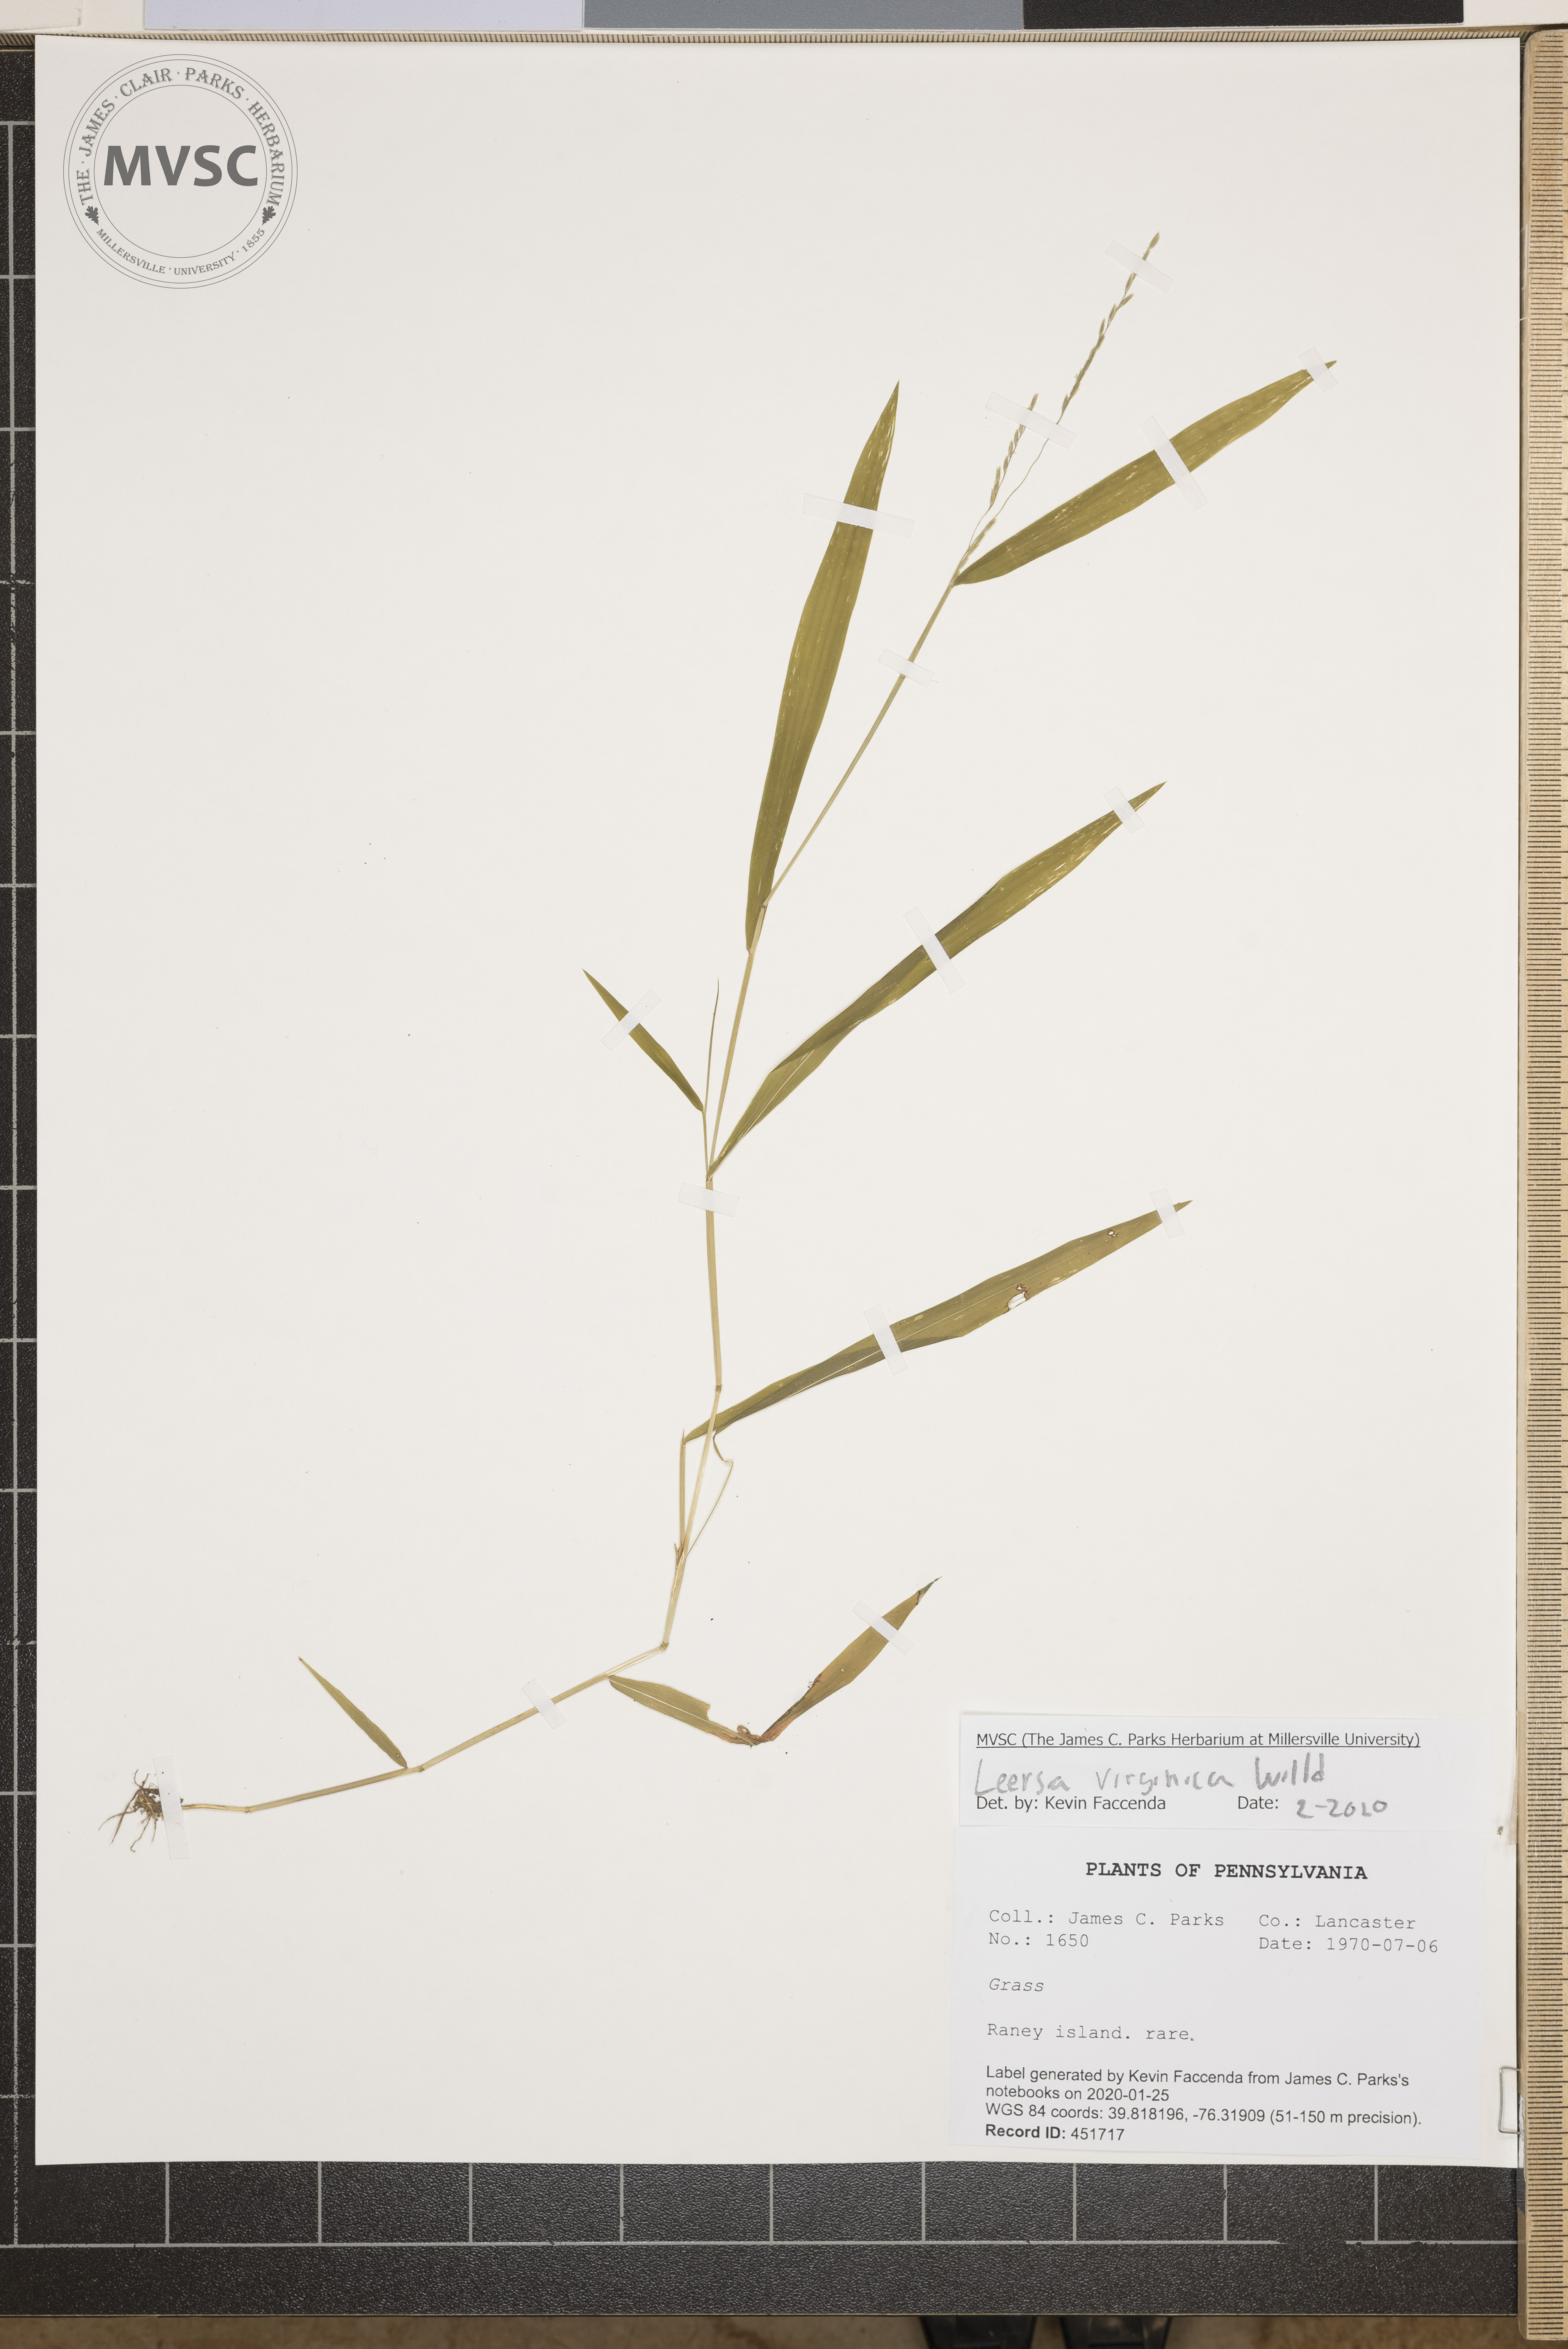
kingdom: Plantae
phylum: Tracheophyta
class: Liliopsida
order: Poales
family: Poaceae
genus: Leersia
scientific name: Leersia virginica
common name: White cutgrass
